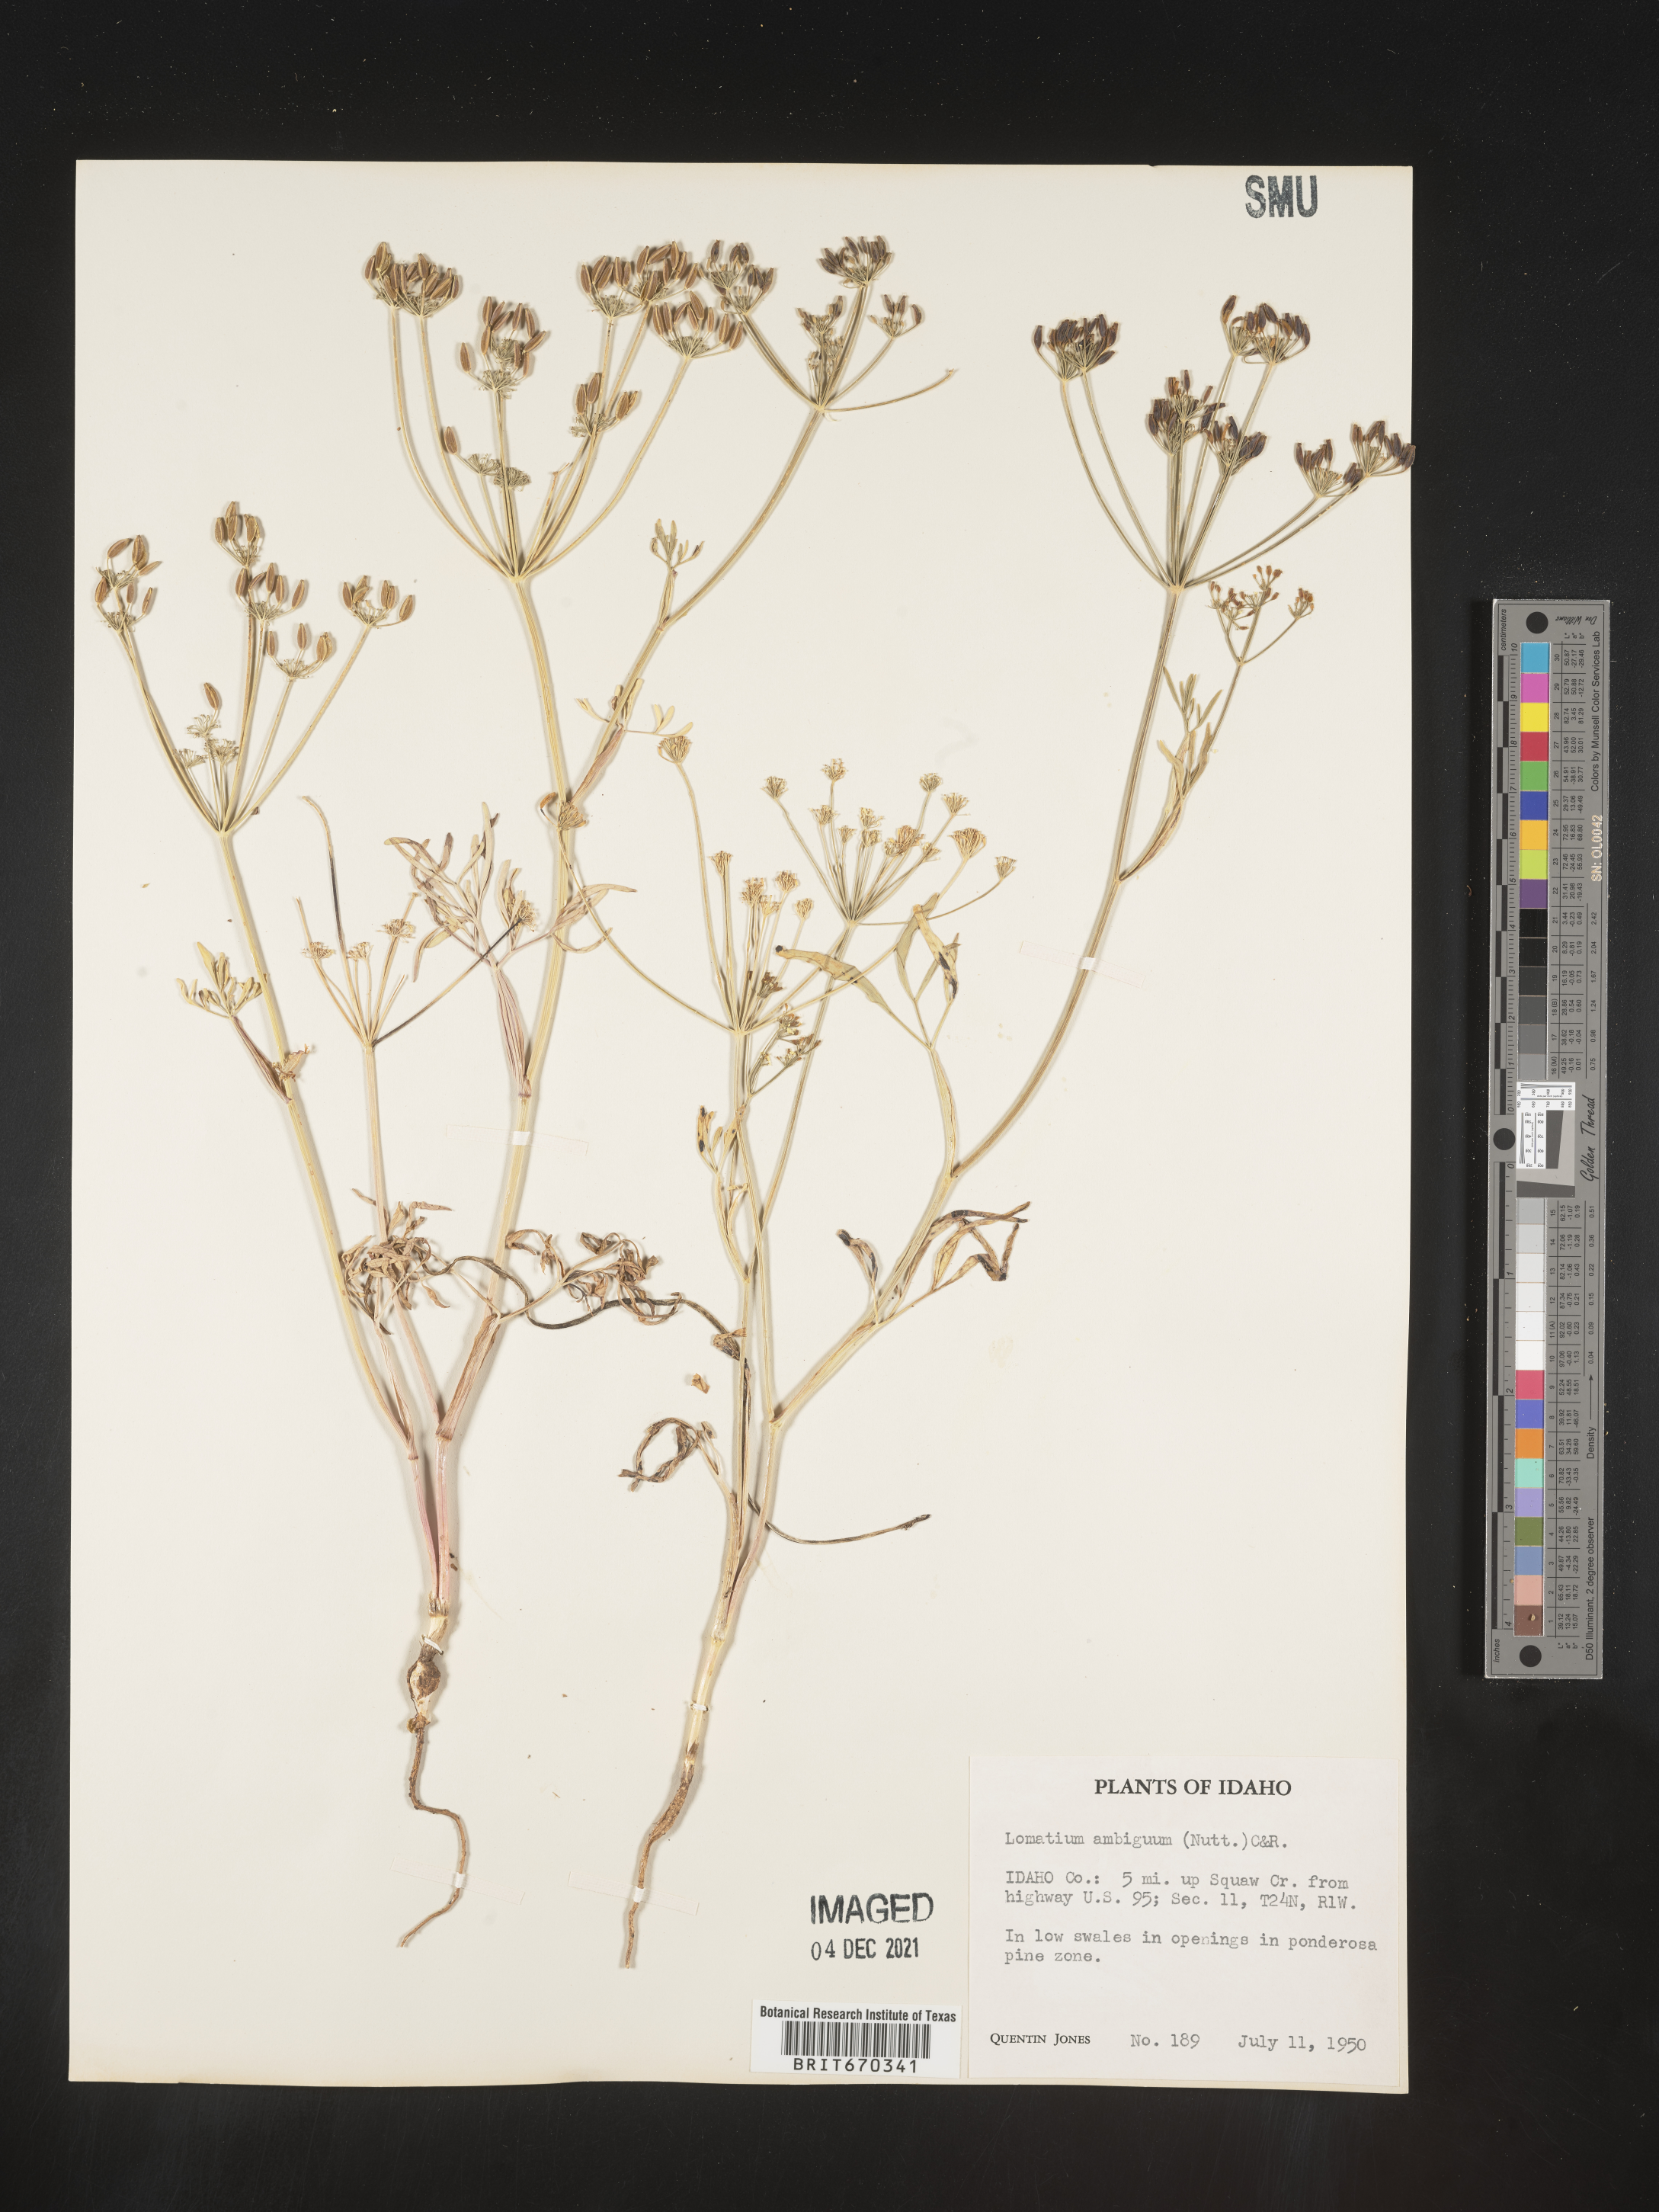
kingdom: Plantae
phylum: Tracheophyta
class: Magnoliopsida
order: Apiales
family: Apiaceae
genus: Lomatium
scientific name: Lomatium ambiguum
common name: Lacy lomatium
